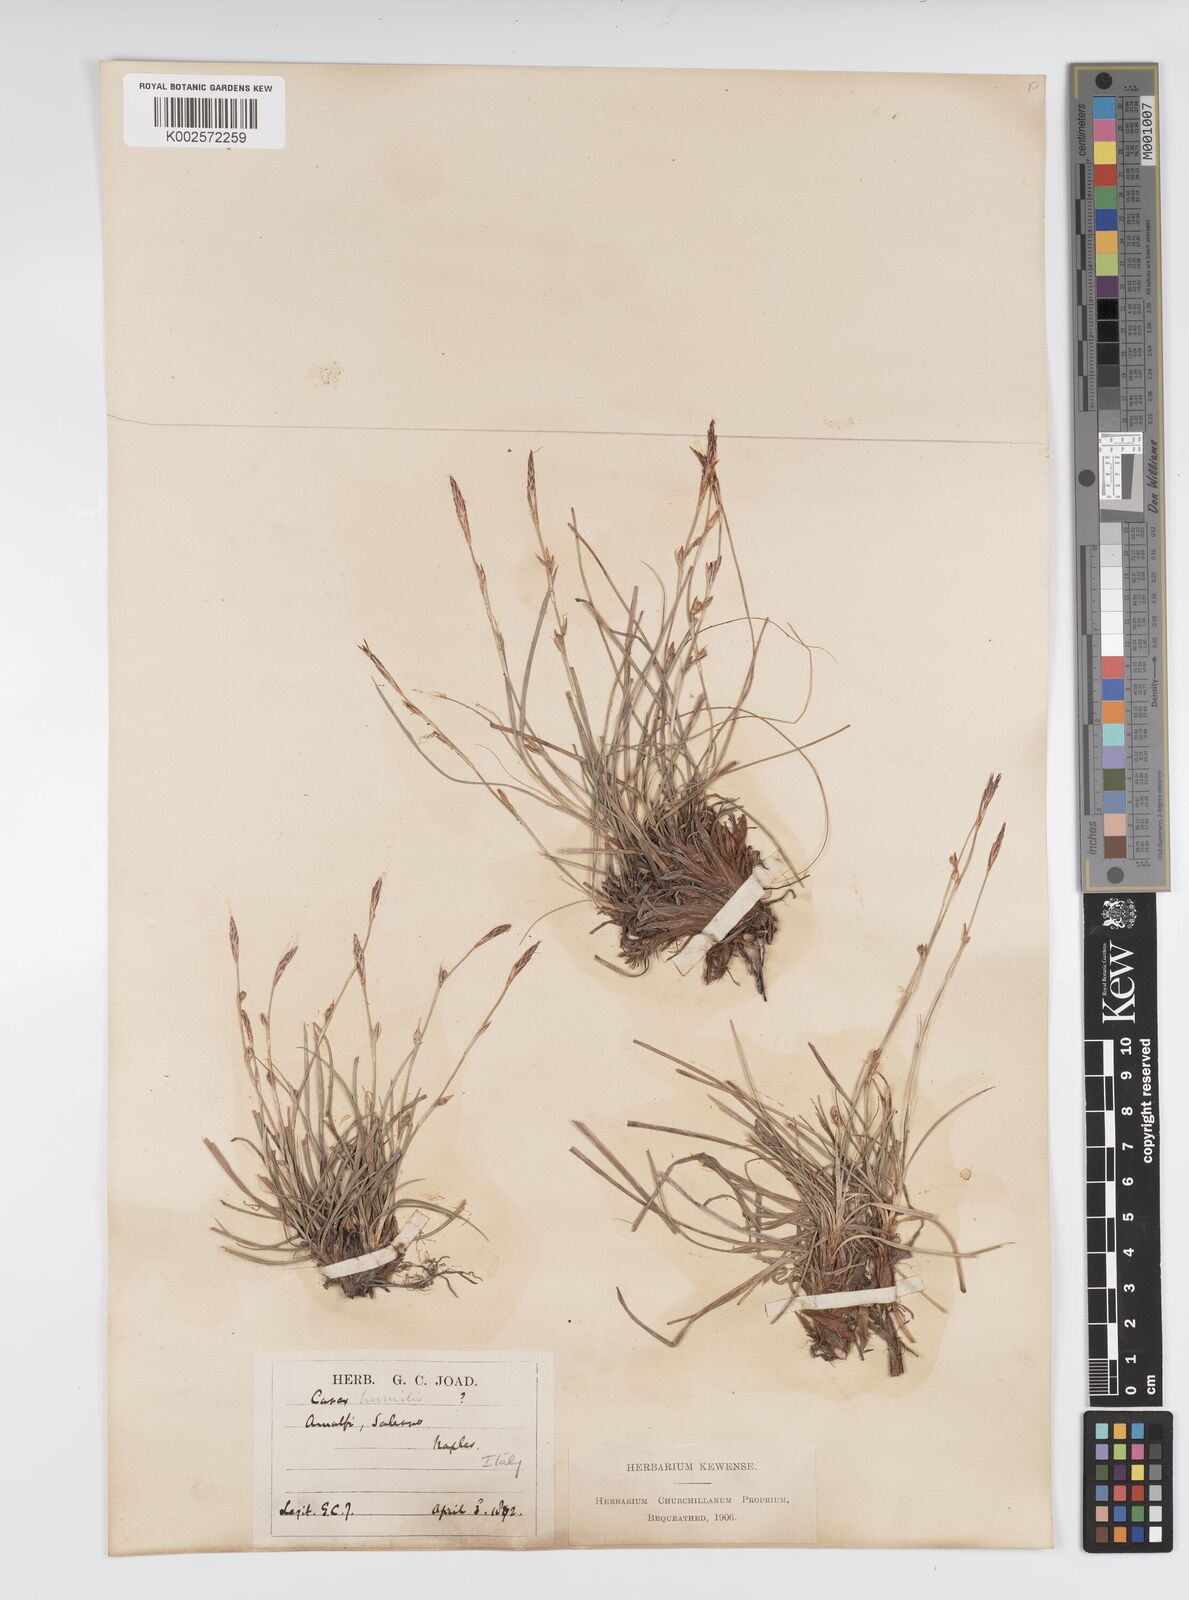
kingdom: Plantae
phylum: Tracheophyta
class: Liliopsida
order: Poales
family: Cyperaceae
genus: Carex
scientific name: Carex humilis
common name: Dwarf sedge
